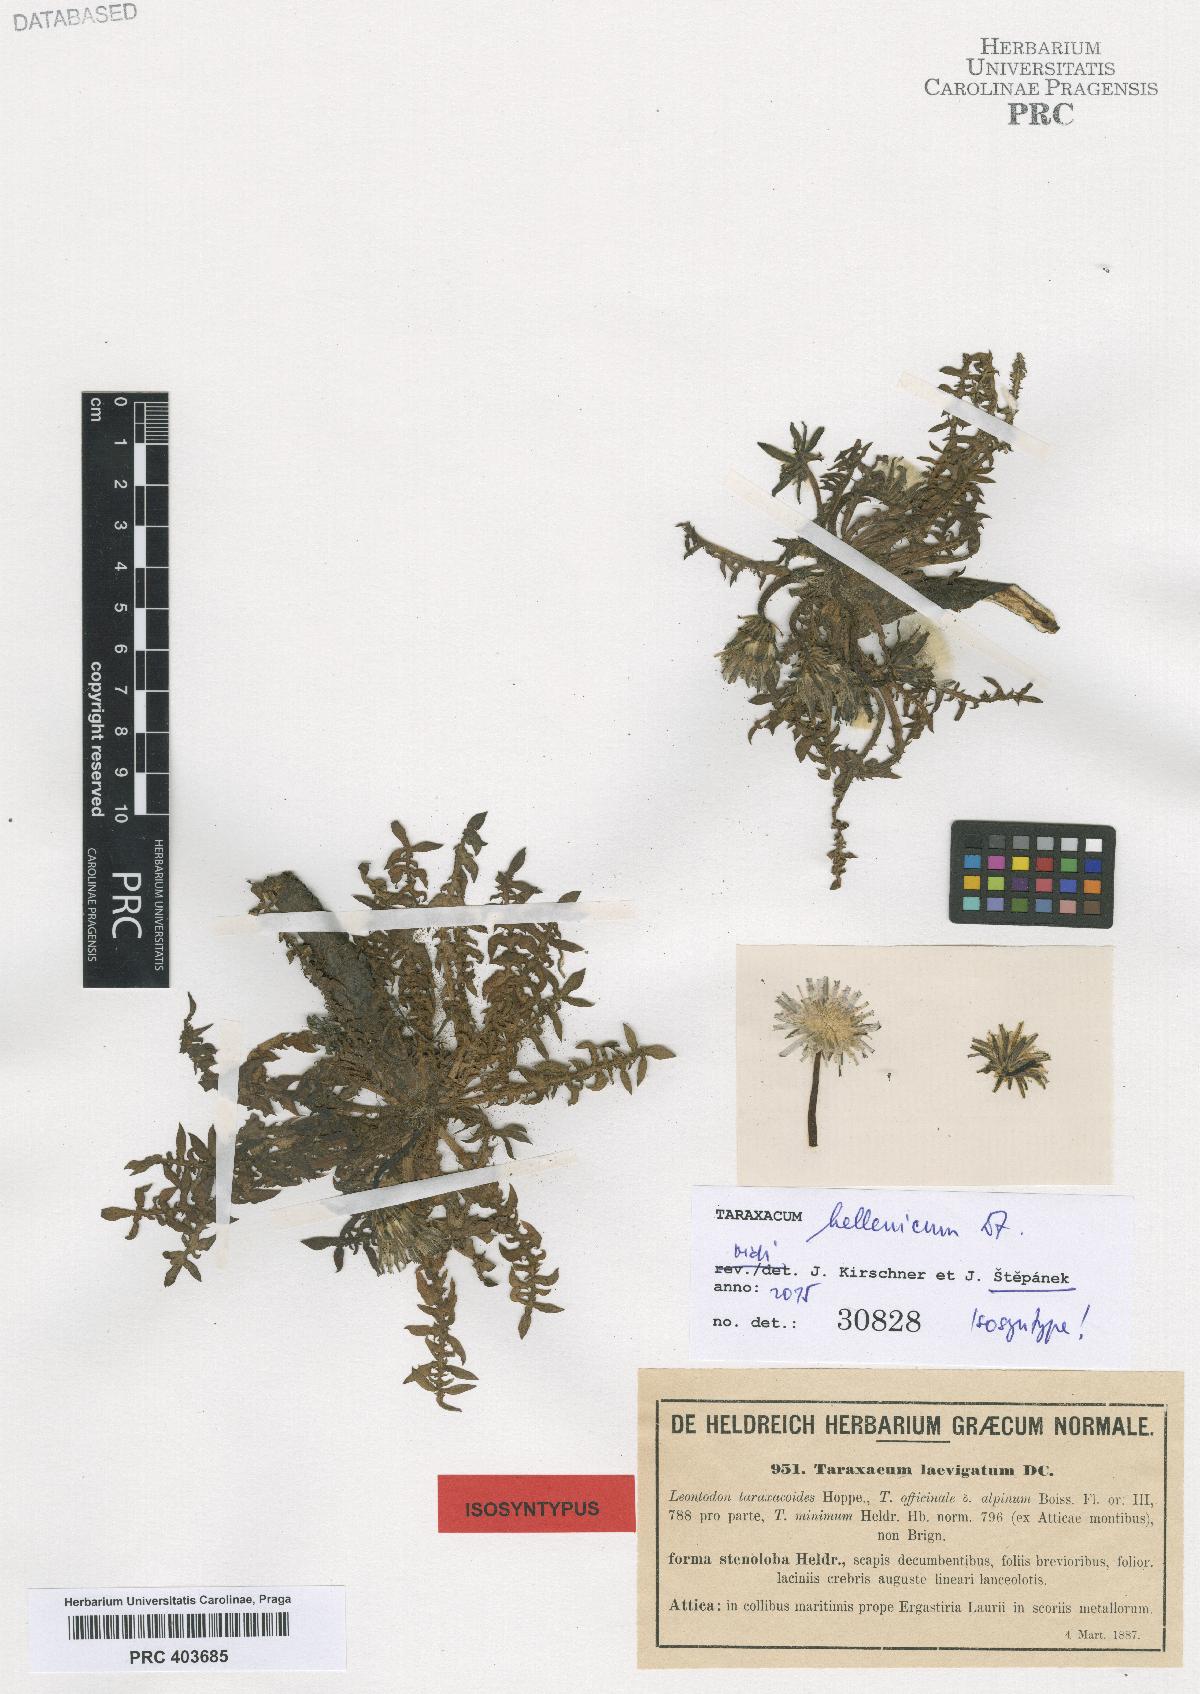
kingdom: Plantae
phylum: Tracheophyta
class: Magnoliopsida
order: Asterales
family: Asteraceae
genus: Taraxacum
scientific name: Taraxacum hellenicum
